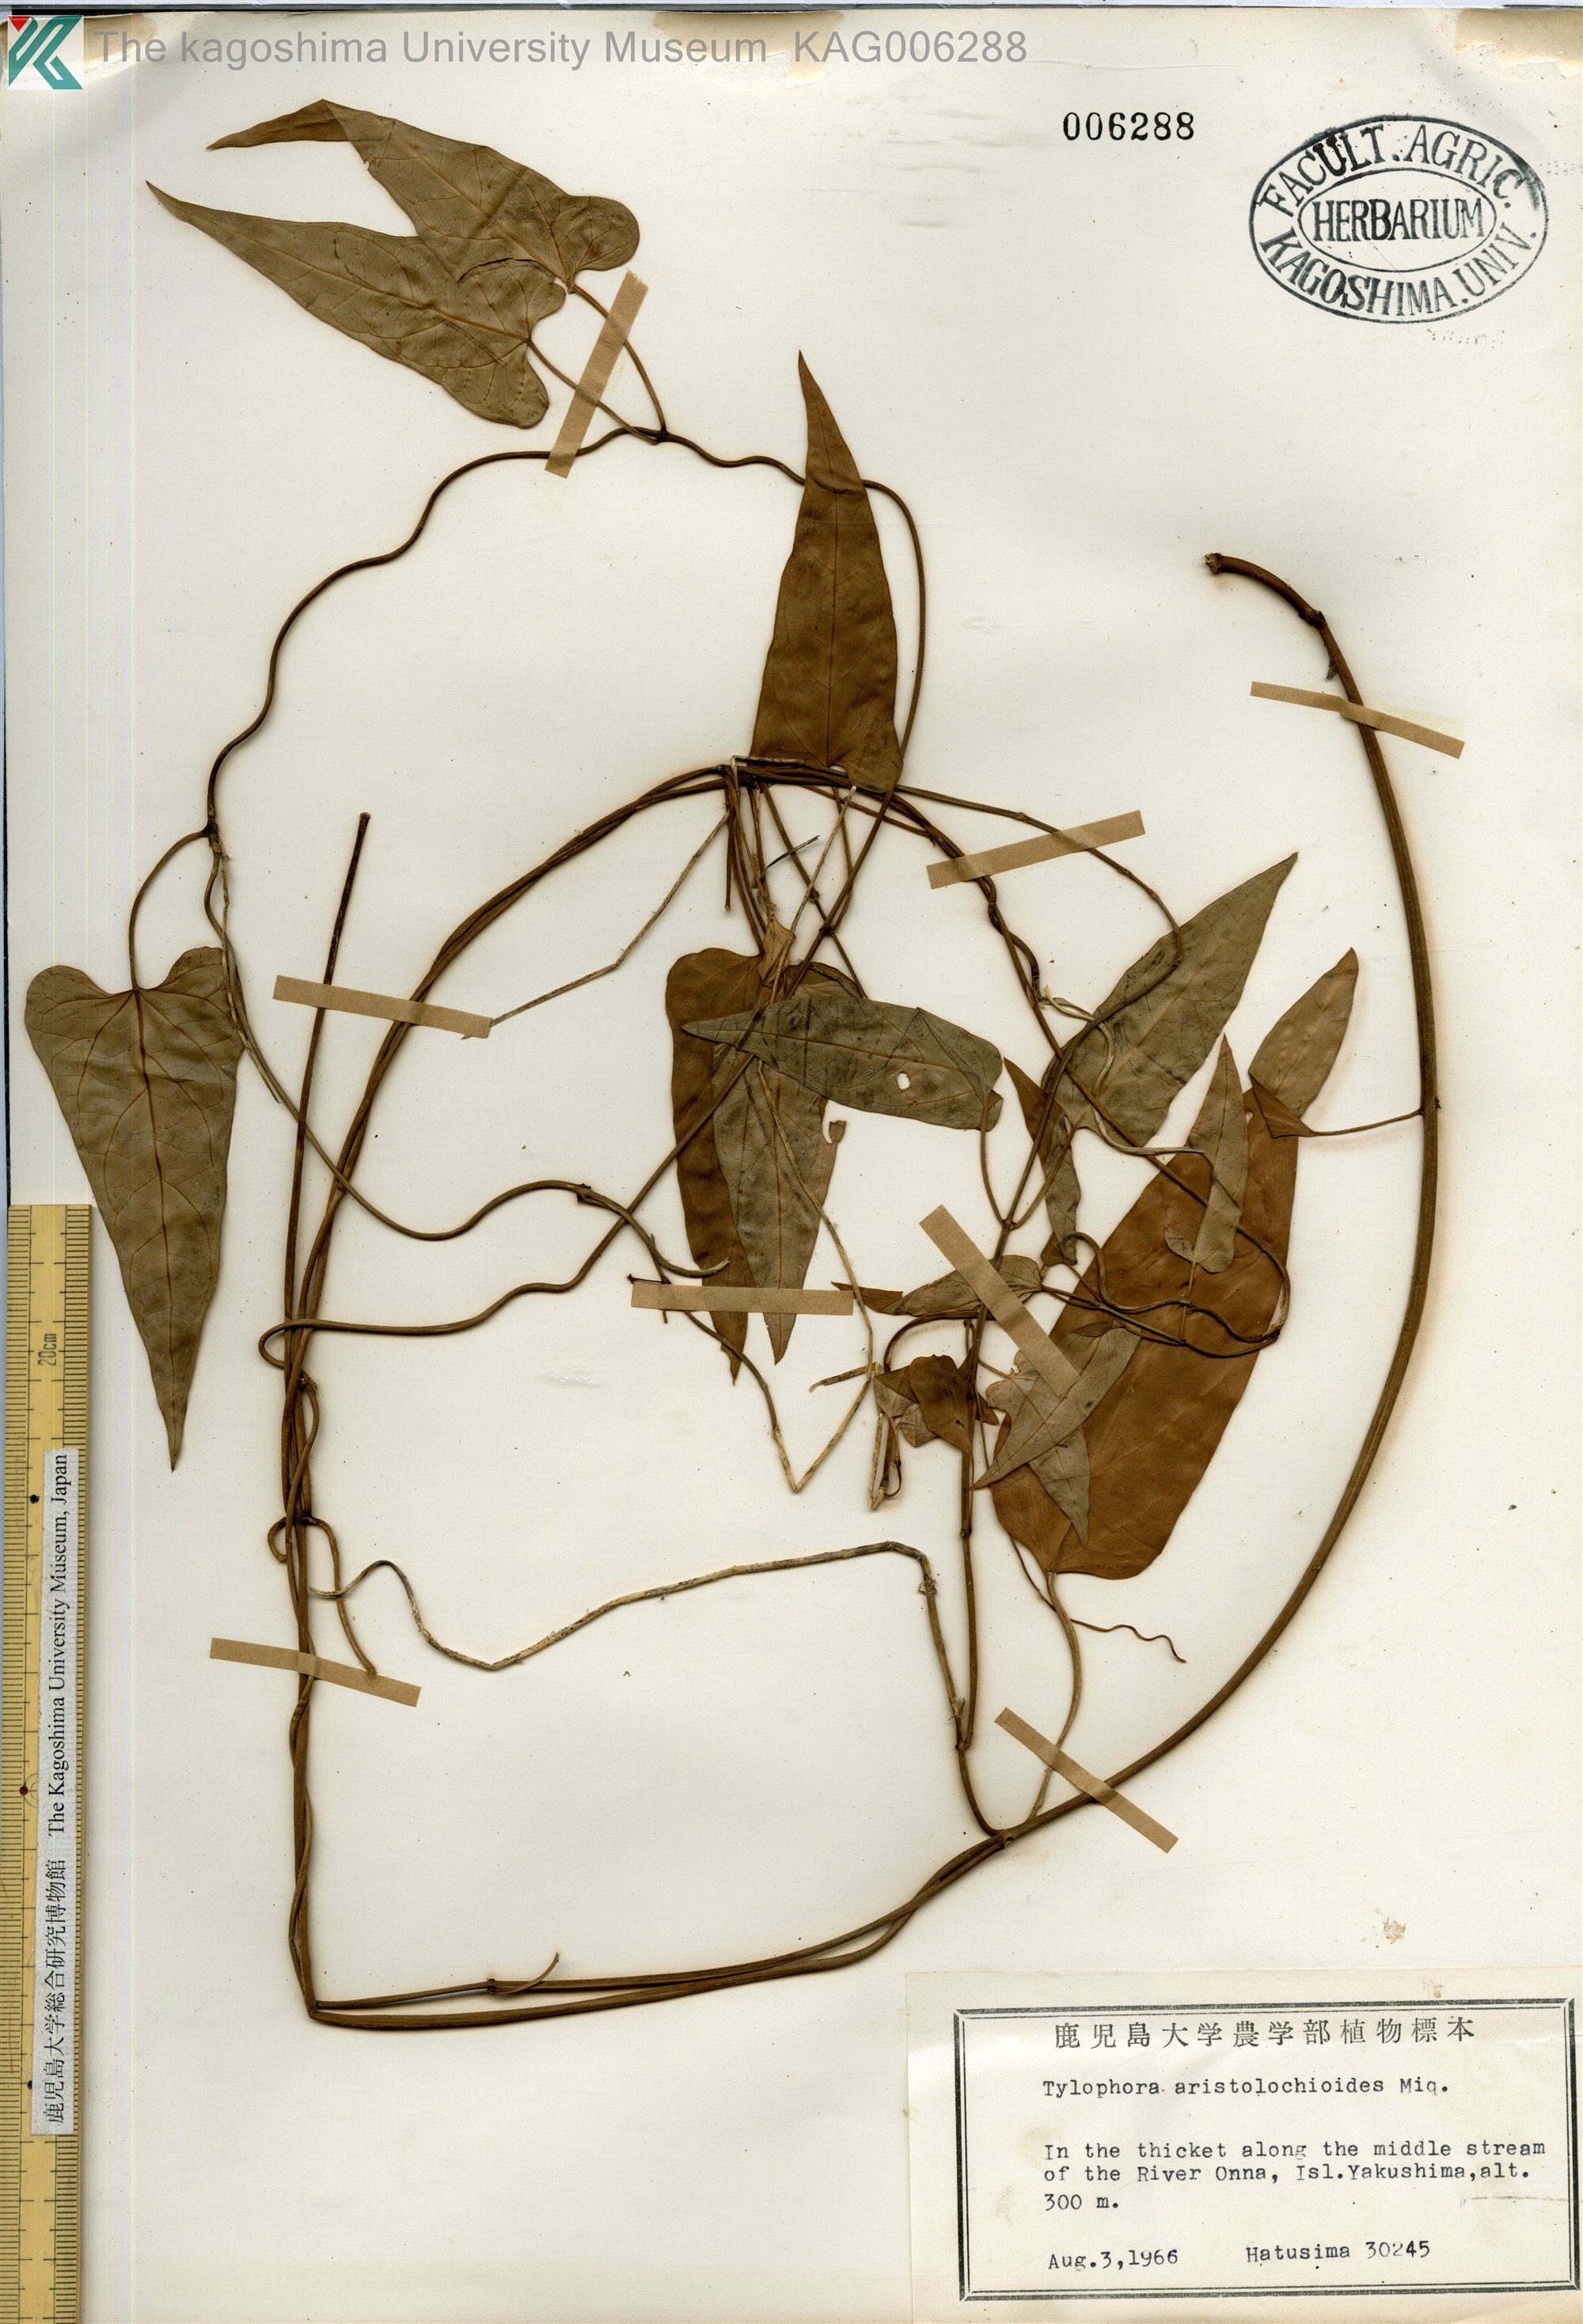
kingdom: Plantae
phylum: Tracheophyta
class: Magnoliopsida
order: Gentianales
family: Apocynaceae
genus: Vincetoxicum
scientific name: Vincetoxicum aristolochioides
